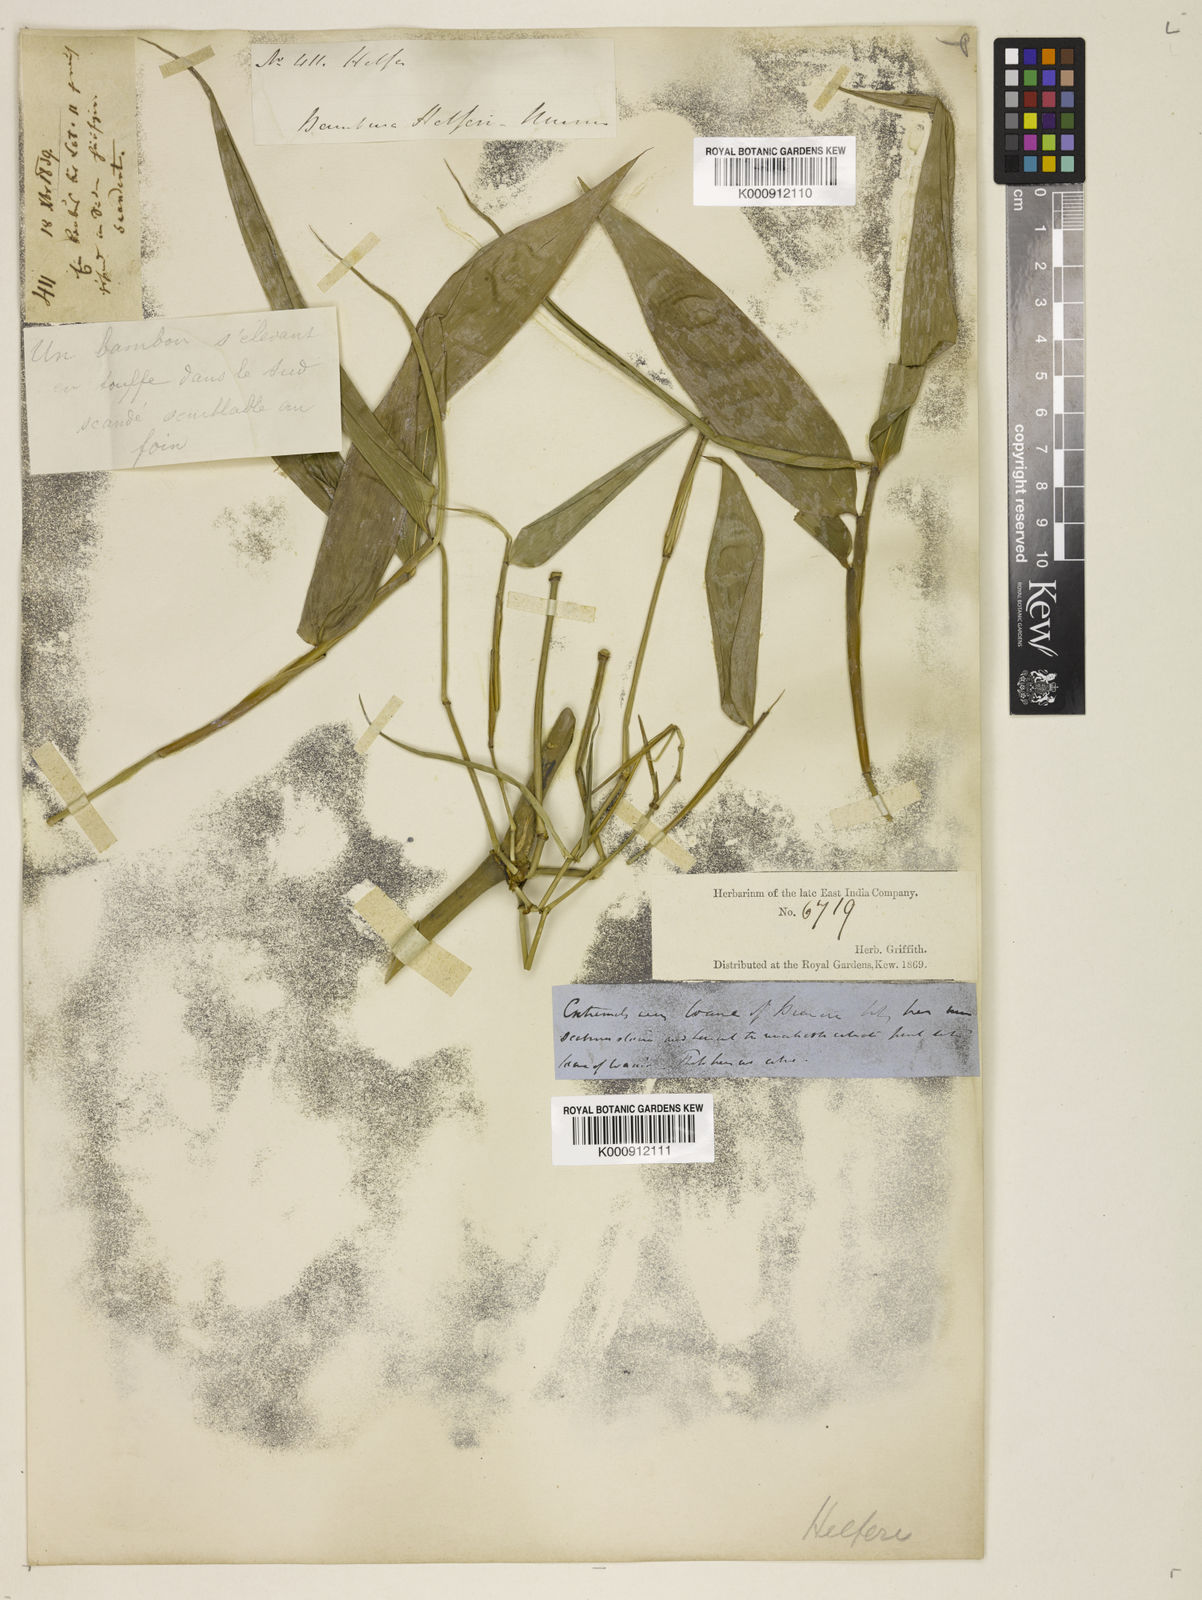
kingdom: Plantae
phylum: Tracheophyta
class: Liliopsida
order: Poales
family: Poaceae
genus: Schizostachyum
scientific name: Schizostachyum helferi
